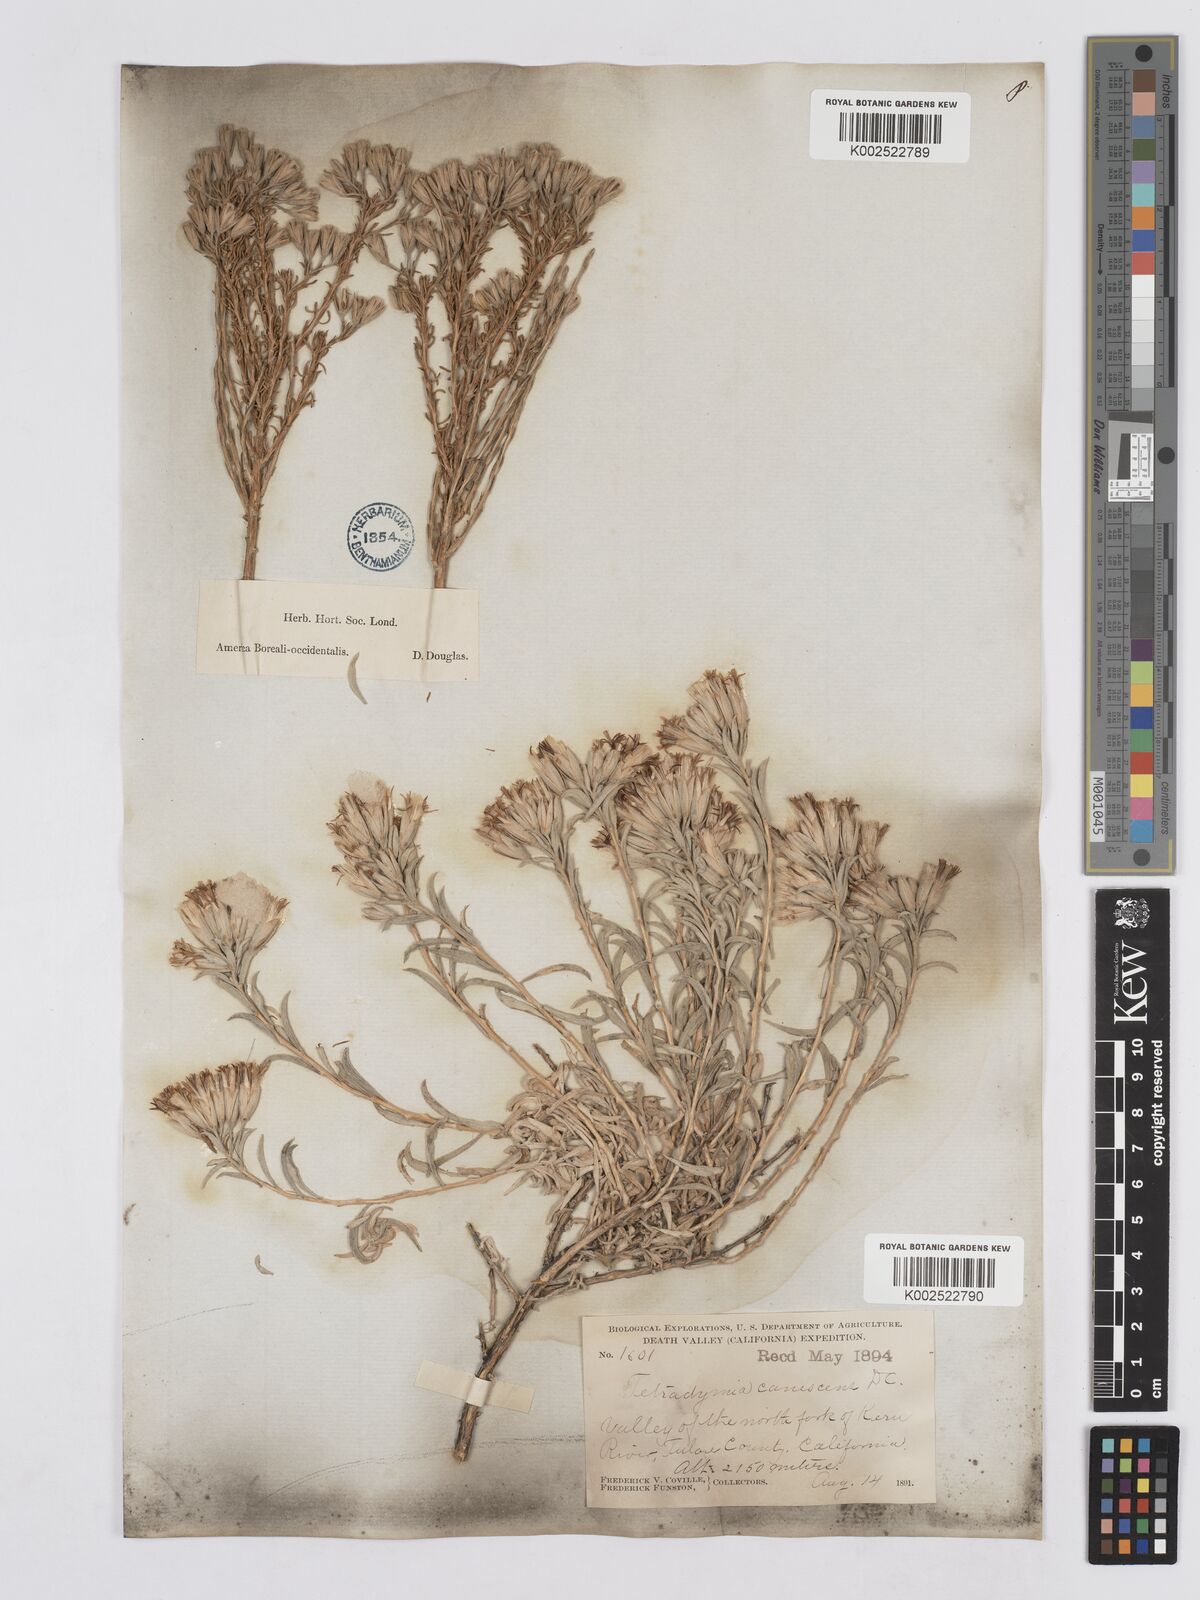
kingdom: Plantae
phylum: Tracheophyta
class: Magnoliopsida
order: Asterales
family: Asteraceae
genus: Tetradymia
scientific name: Tetradymia canescens
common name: Spineless horsebrush
